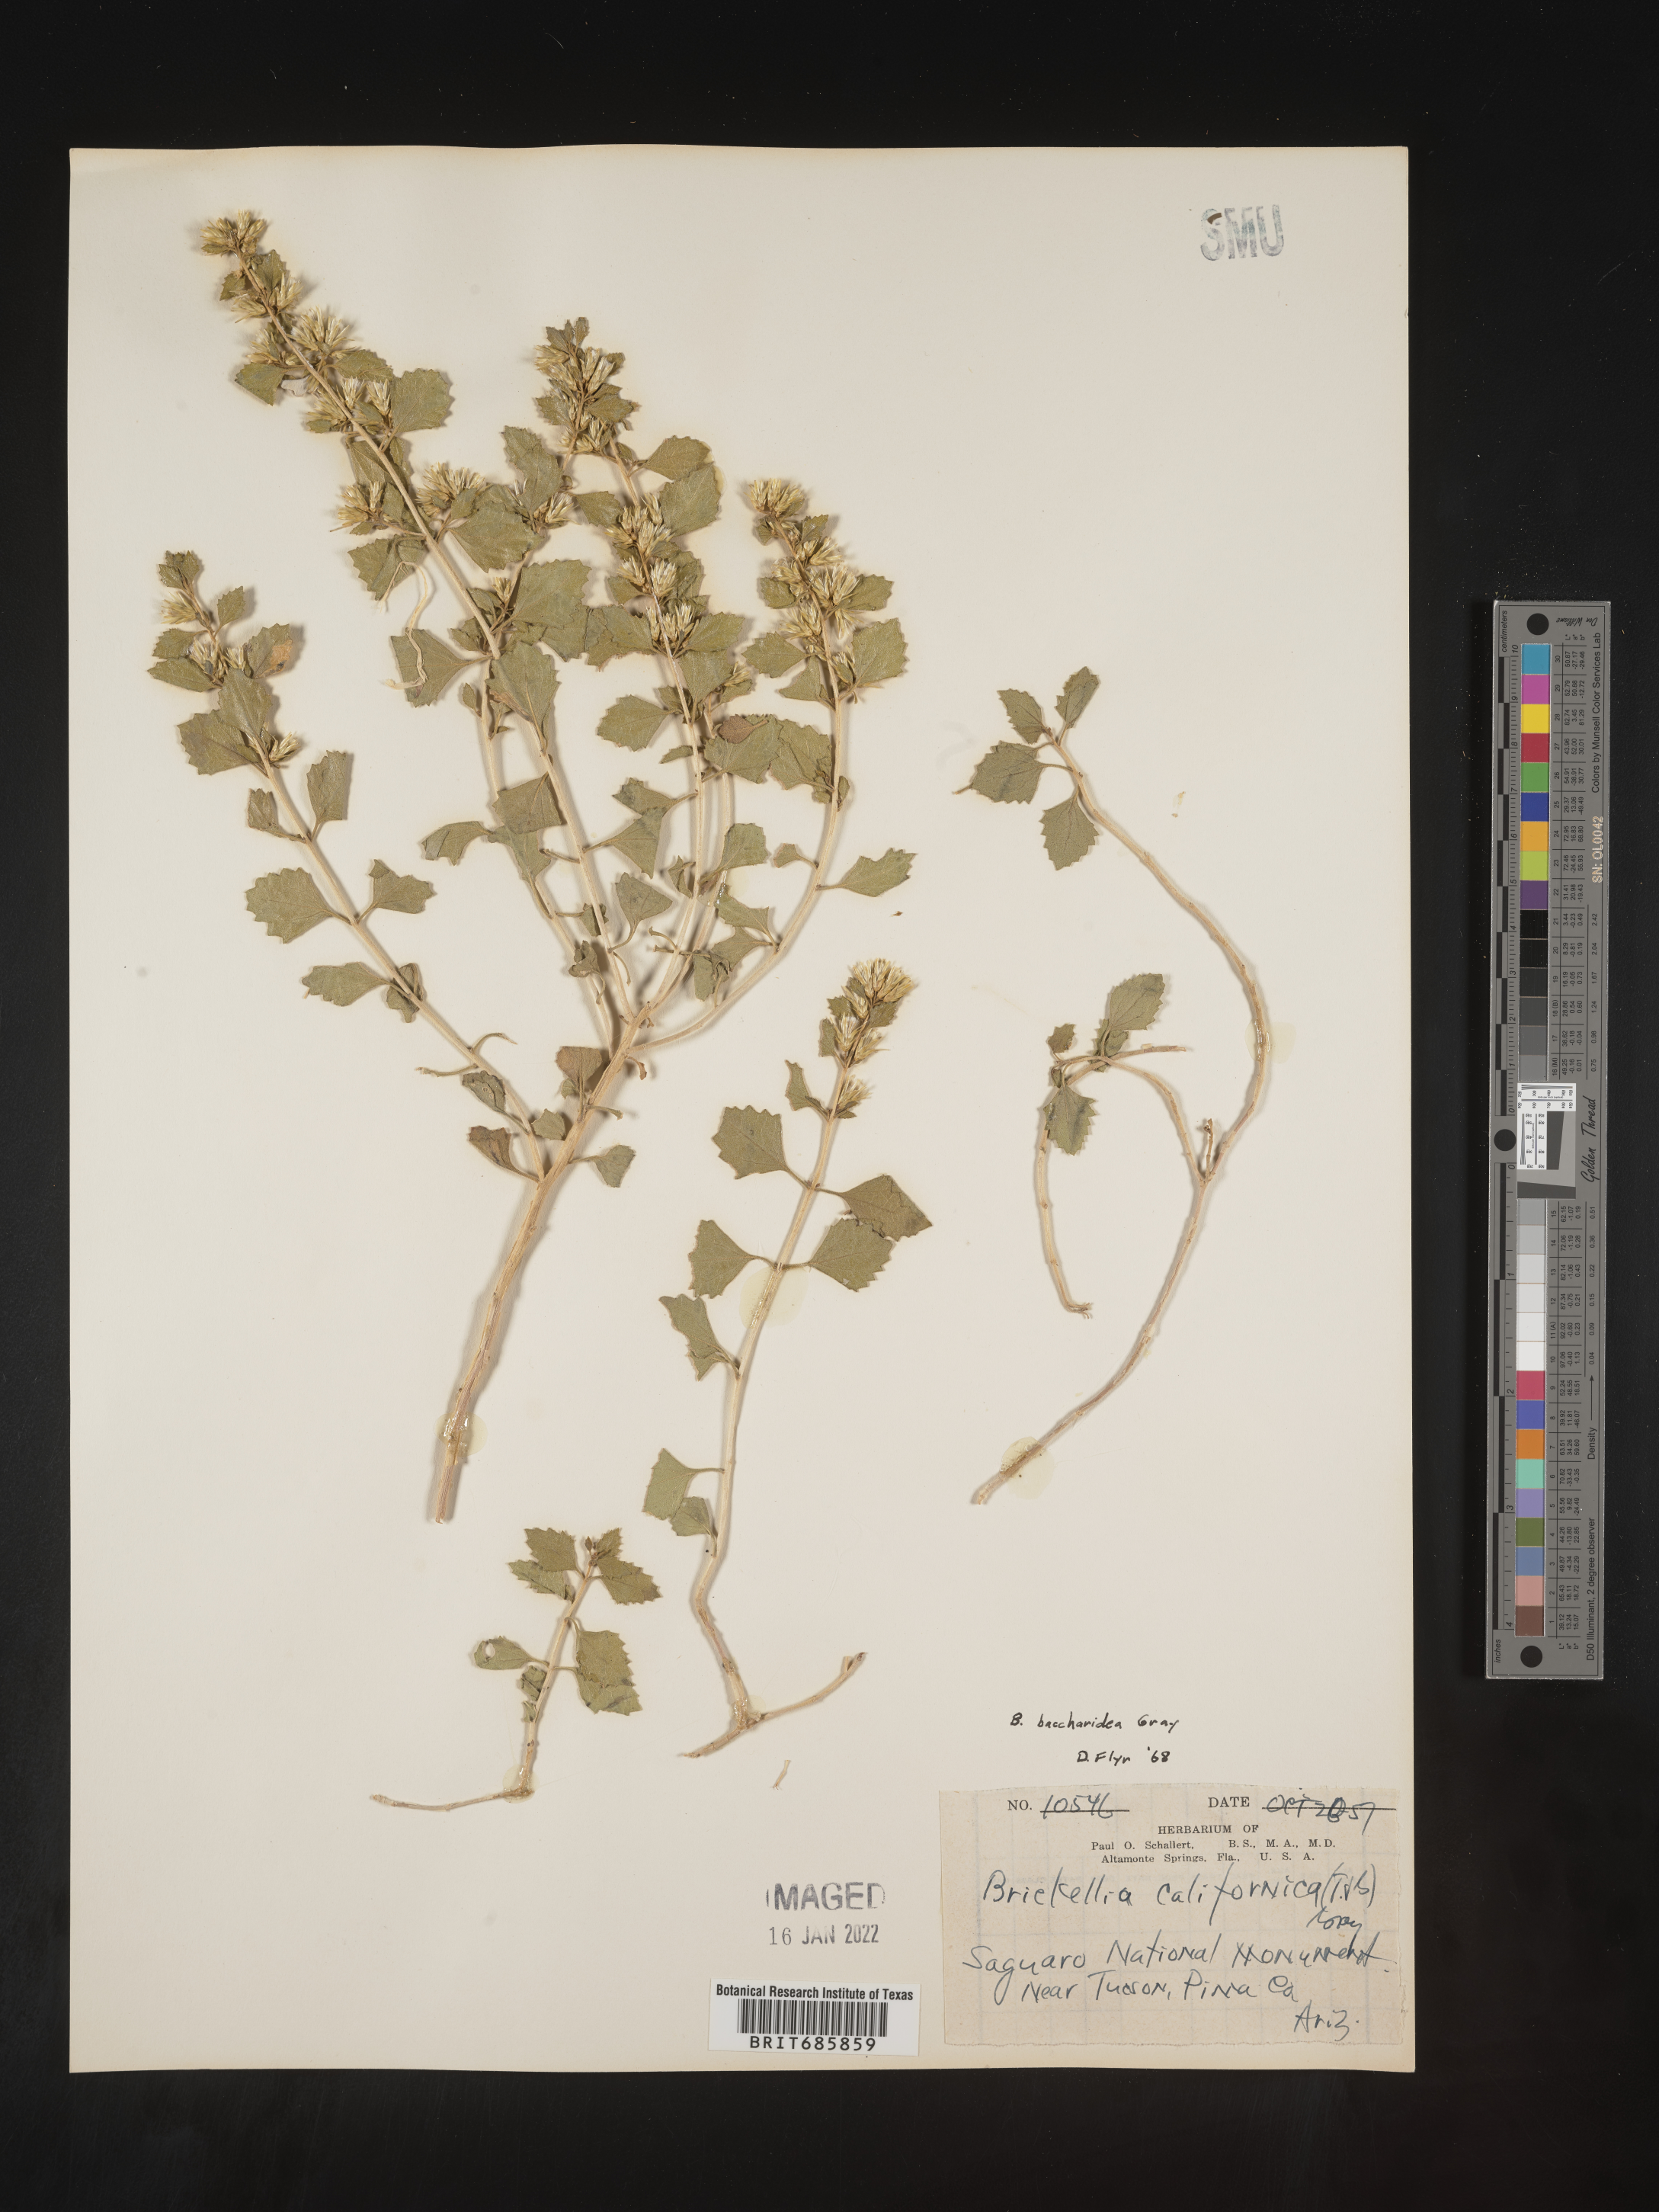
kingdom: Plantae
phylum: Tracheophyta
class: Magnoliopsida
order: Asterales
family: Asteraceae
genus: Brickellia
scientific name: Brickellia californica
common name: California brickellbush
